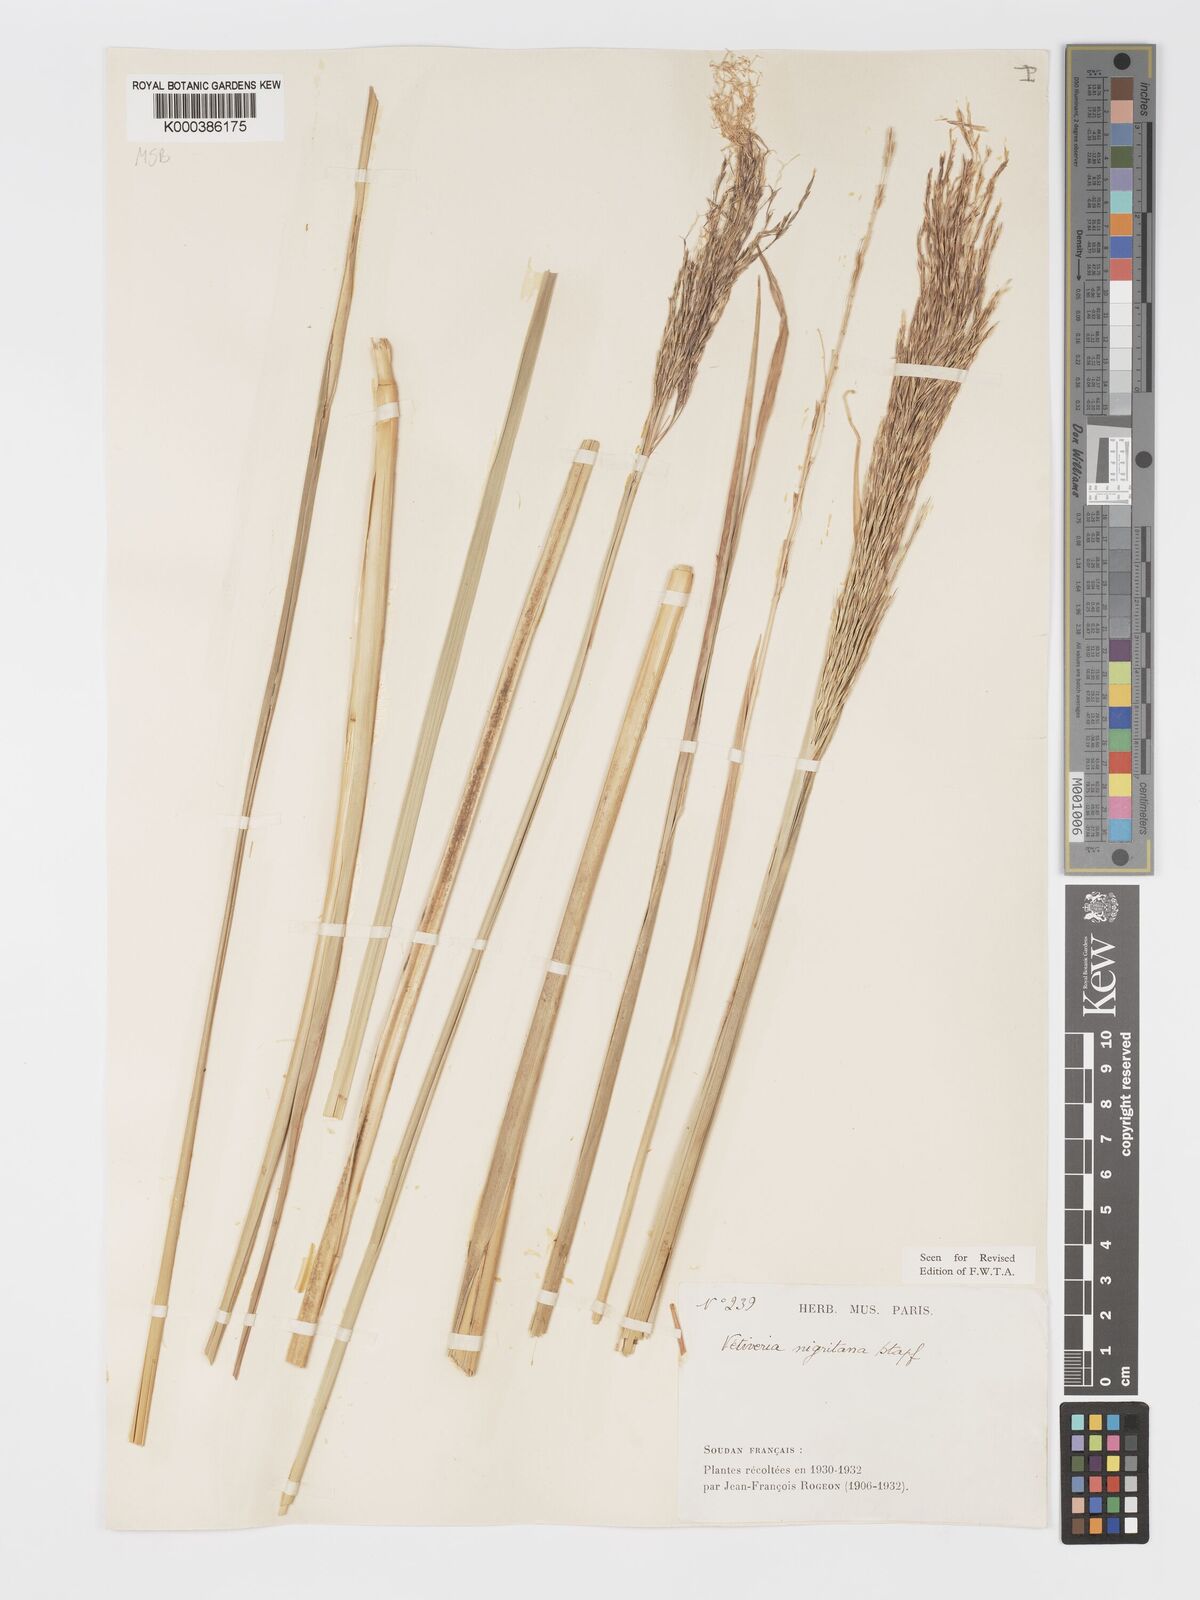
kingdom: Plantae
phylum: Tracheophyta
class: Liliopsida
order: Poales
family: Poaceae
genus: Chrysopogon
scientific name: Chrysopogon nigritanus
